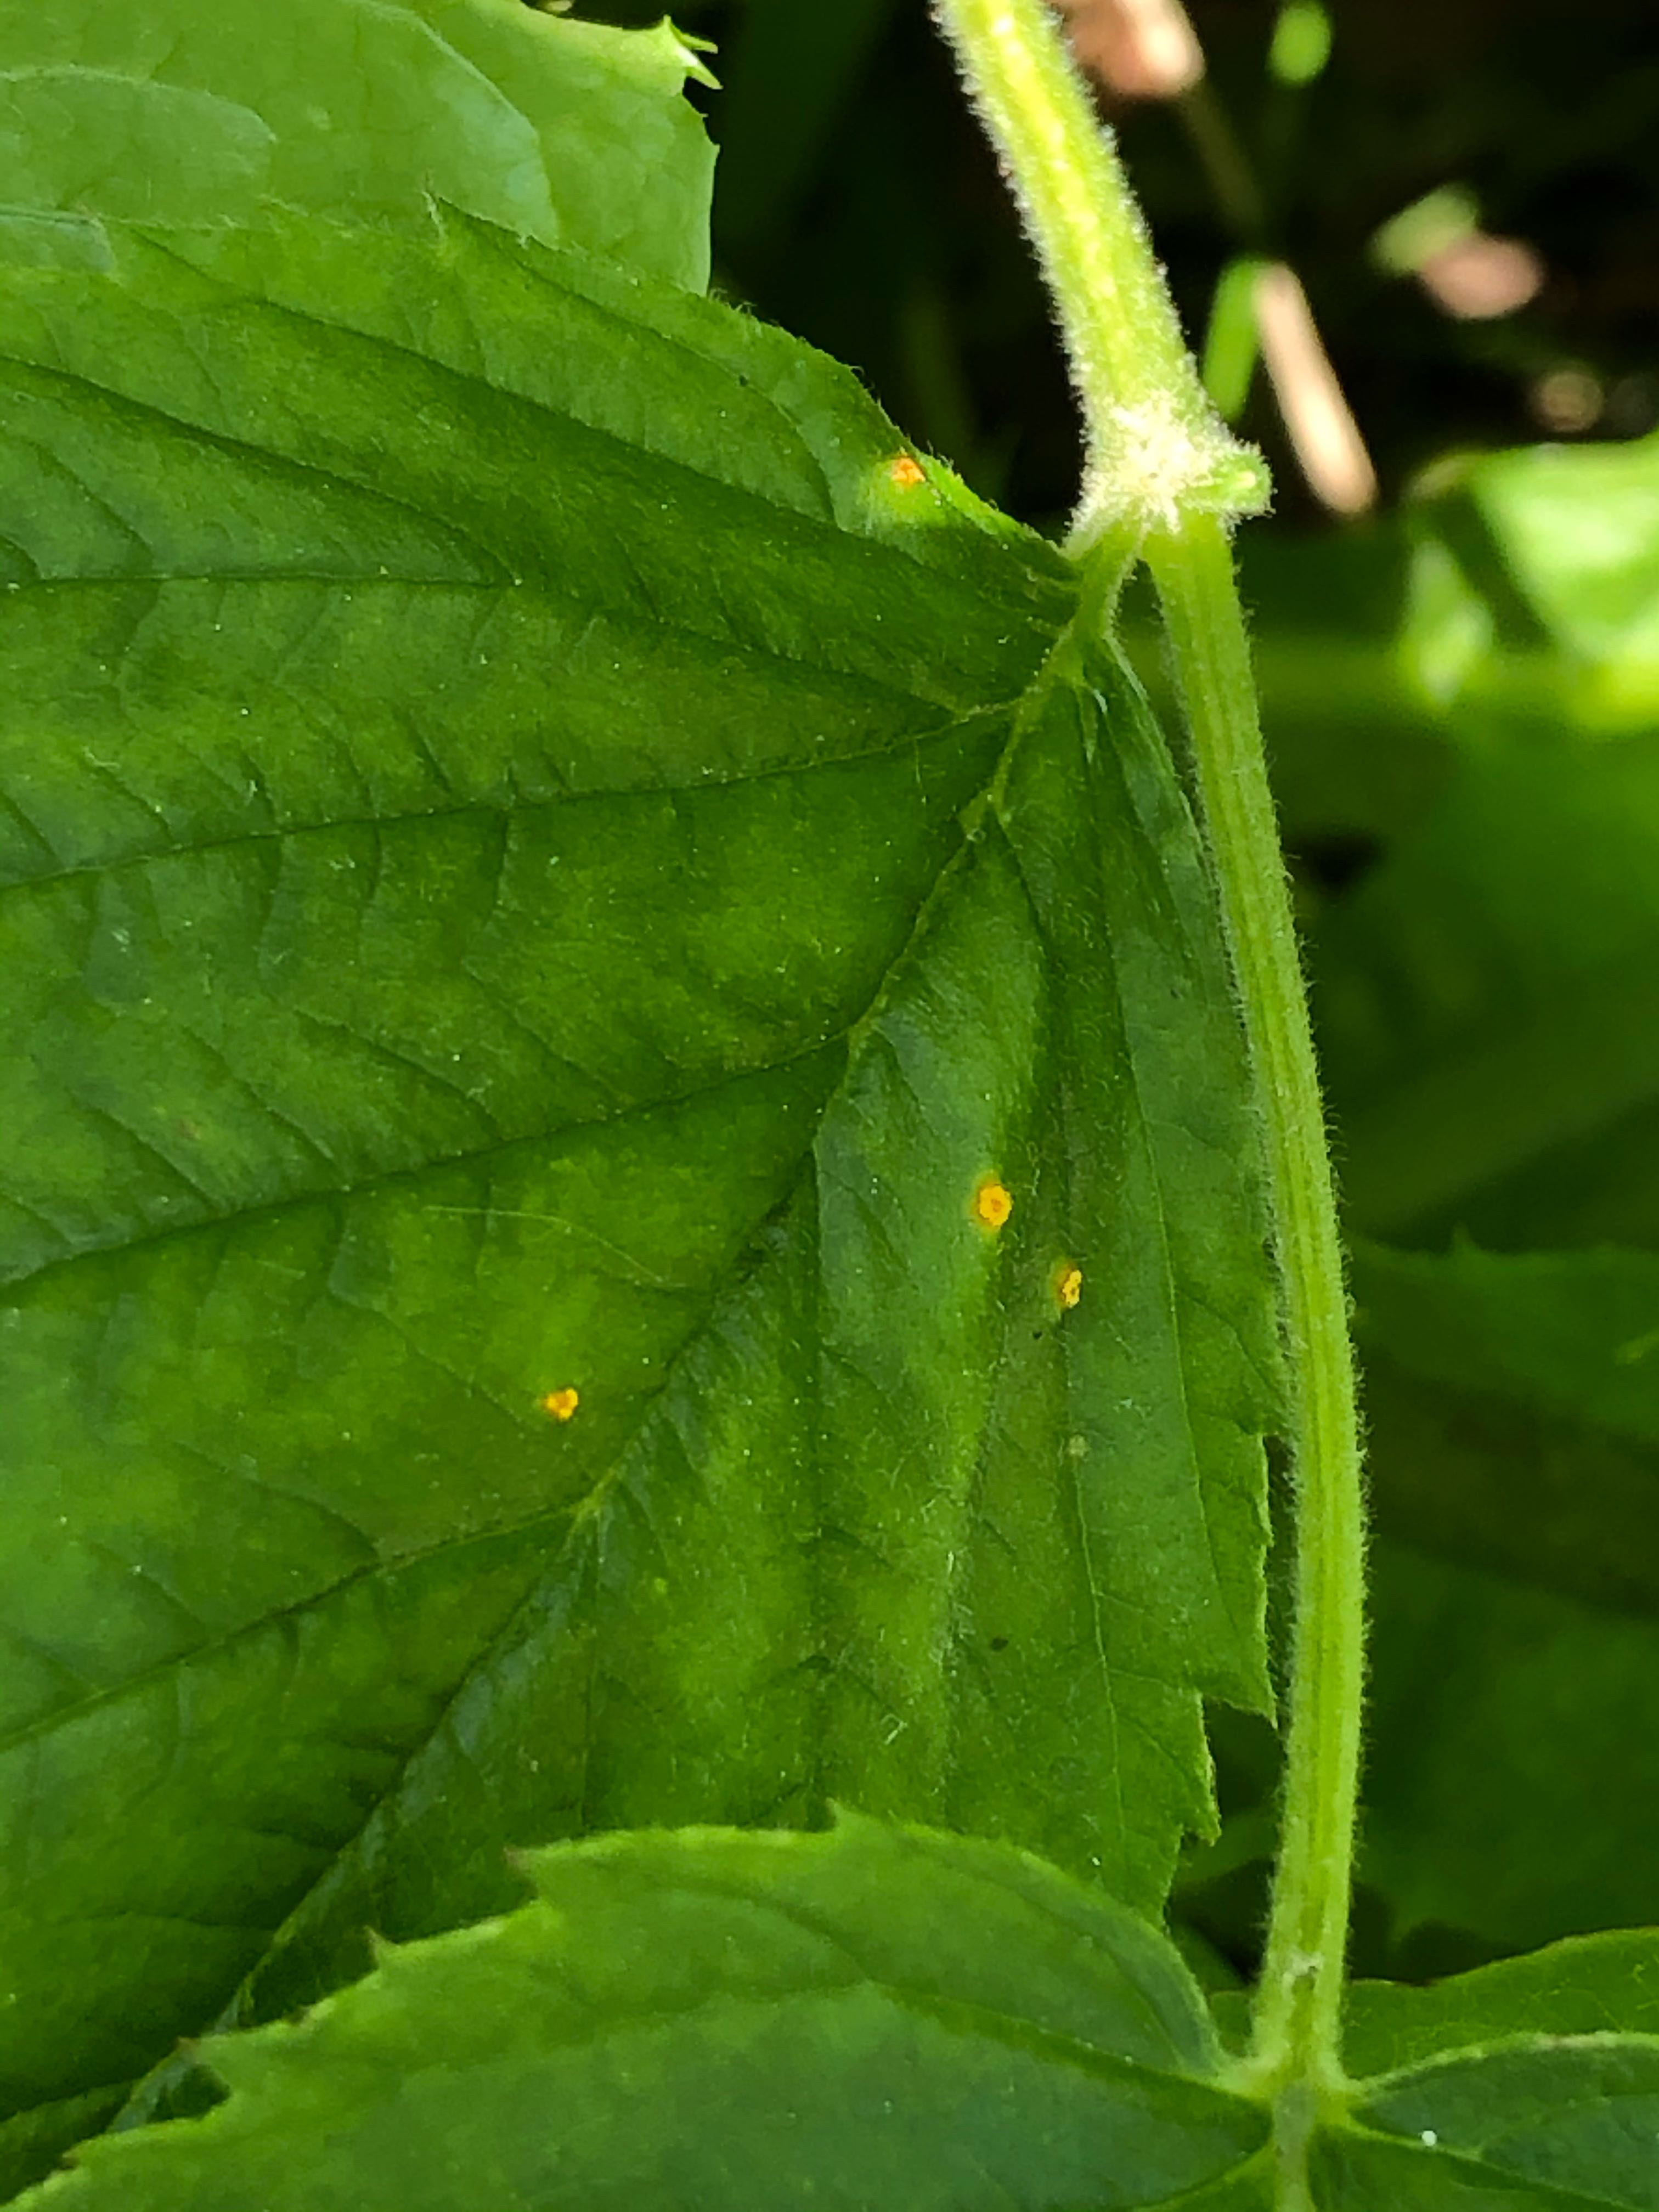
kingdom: Fungi
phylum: Basidiomycota
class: Pucciniomycetes
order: Pucciniales
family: Phragmidiaceae
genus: Phragmidium
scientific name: Phragmidium rubi-idaei
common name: hindbær-flercellerust
